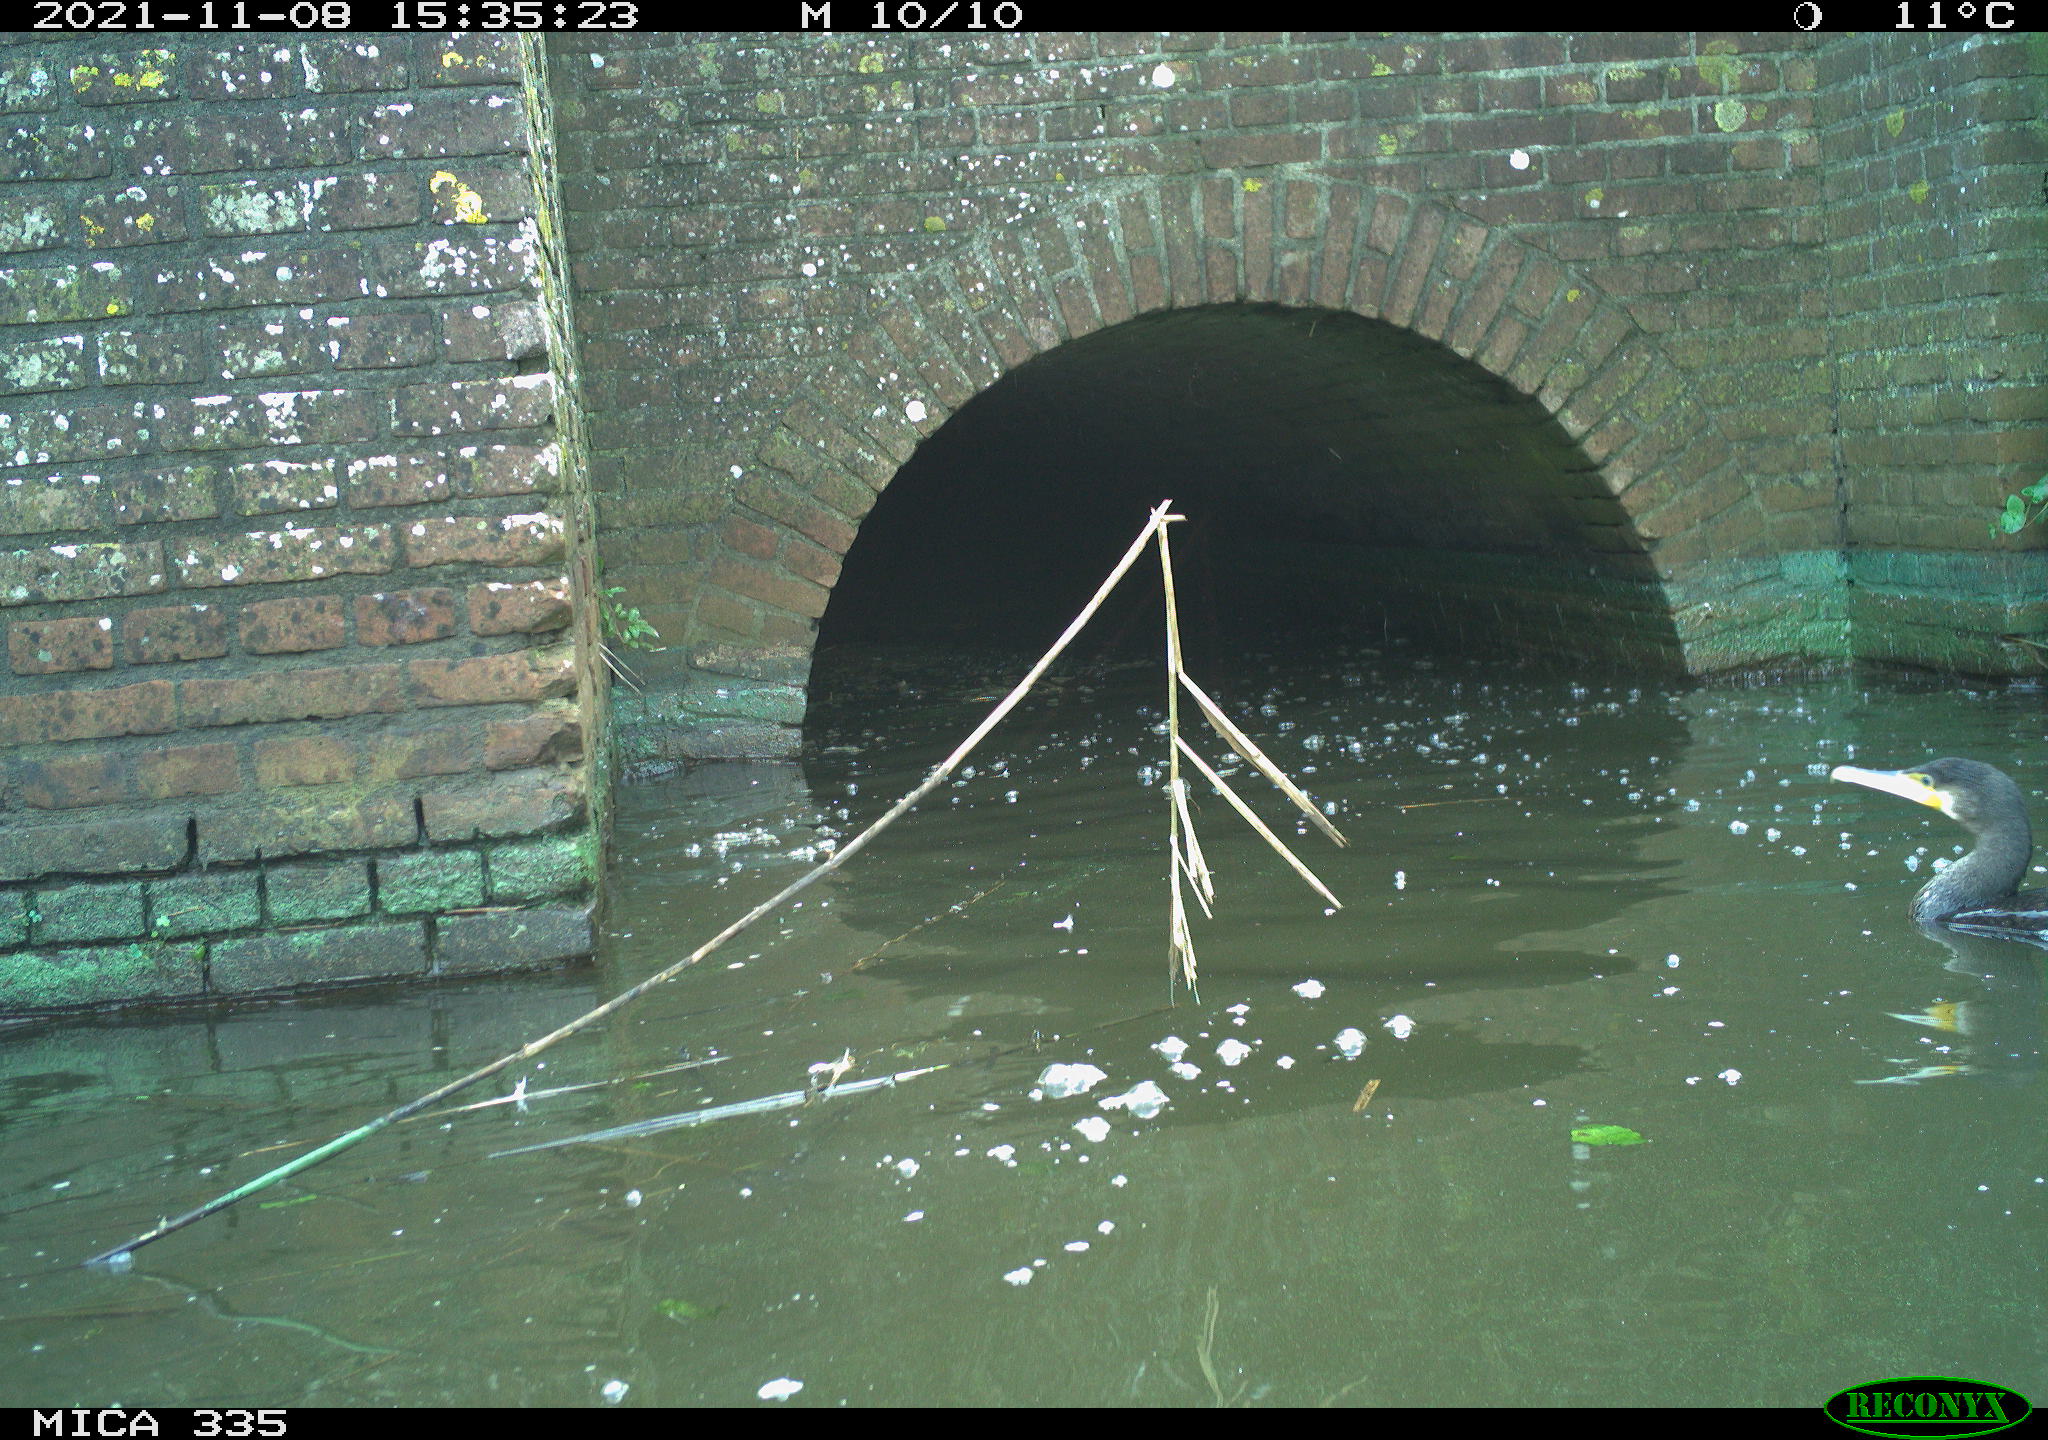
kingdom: Animalia
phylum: Chordata
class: Aves
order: Suliformes
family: Phalacrocoracidae
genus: Phalacrocorax
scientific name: Phalacrocorax carbo
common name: Great cormorant
